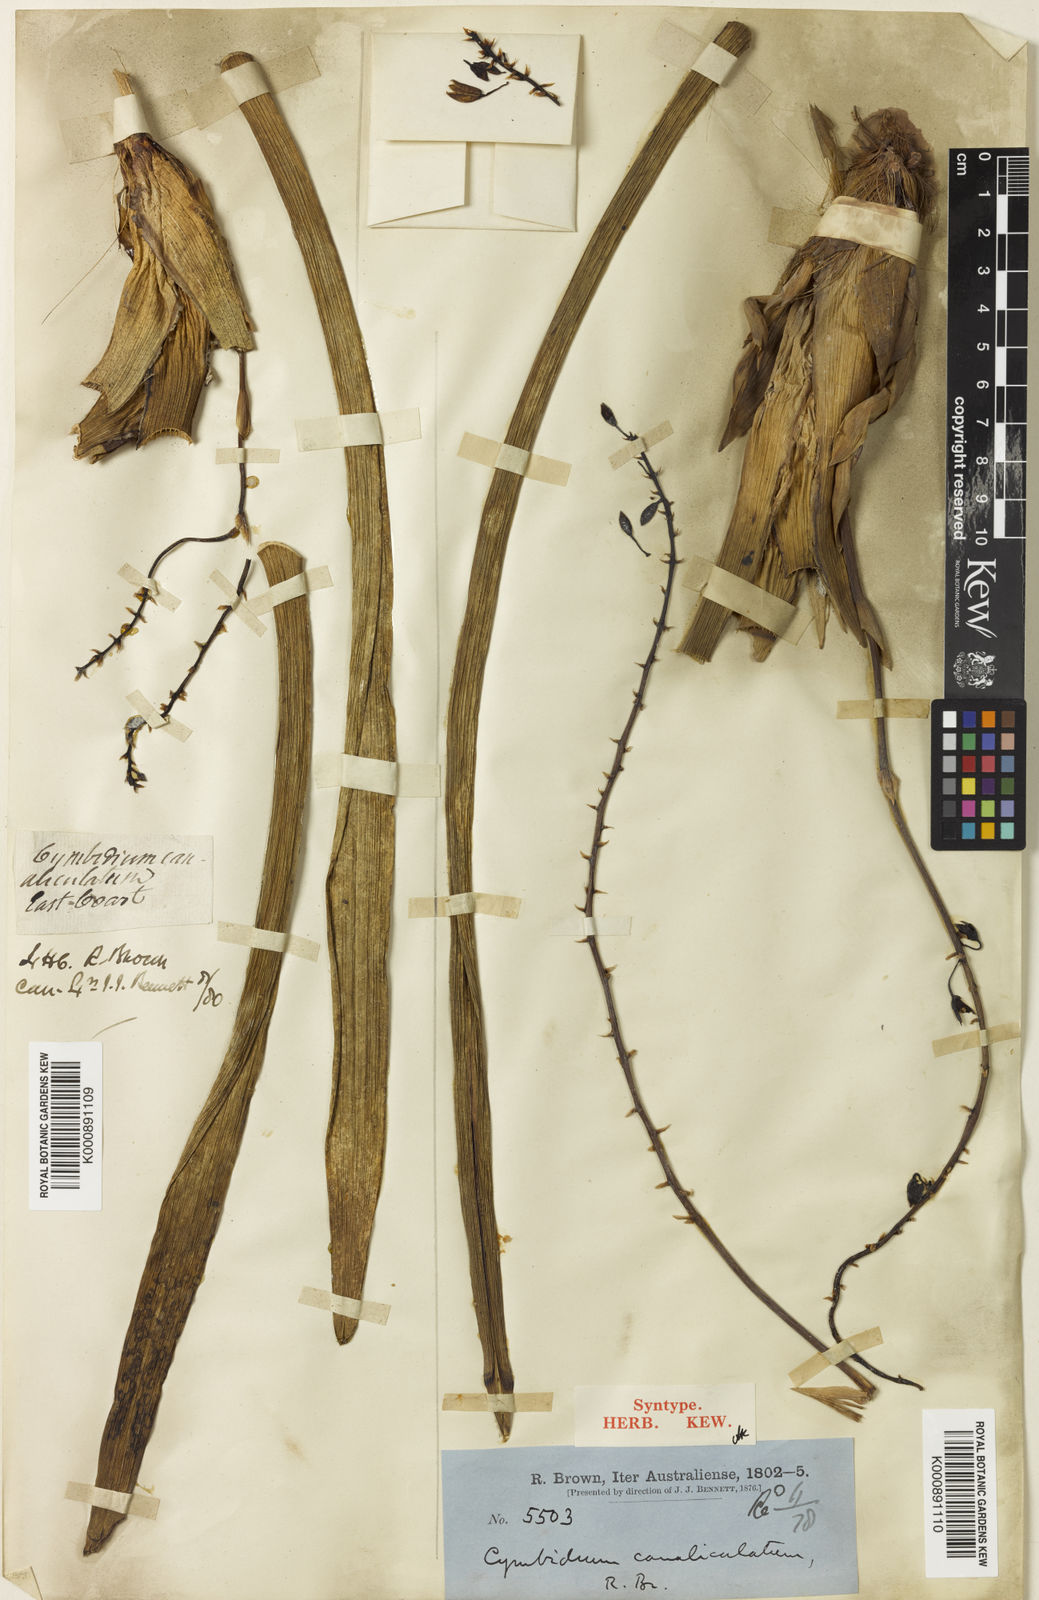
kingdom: Plantae
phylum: Tracheophyta
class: Liliopsida
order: Asparagales
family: Orchidaceae
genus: Cymbidium
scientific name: Cymbidium canaliculatum
